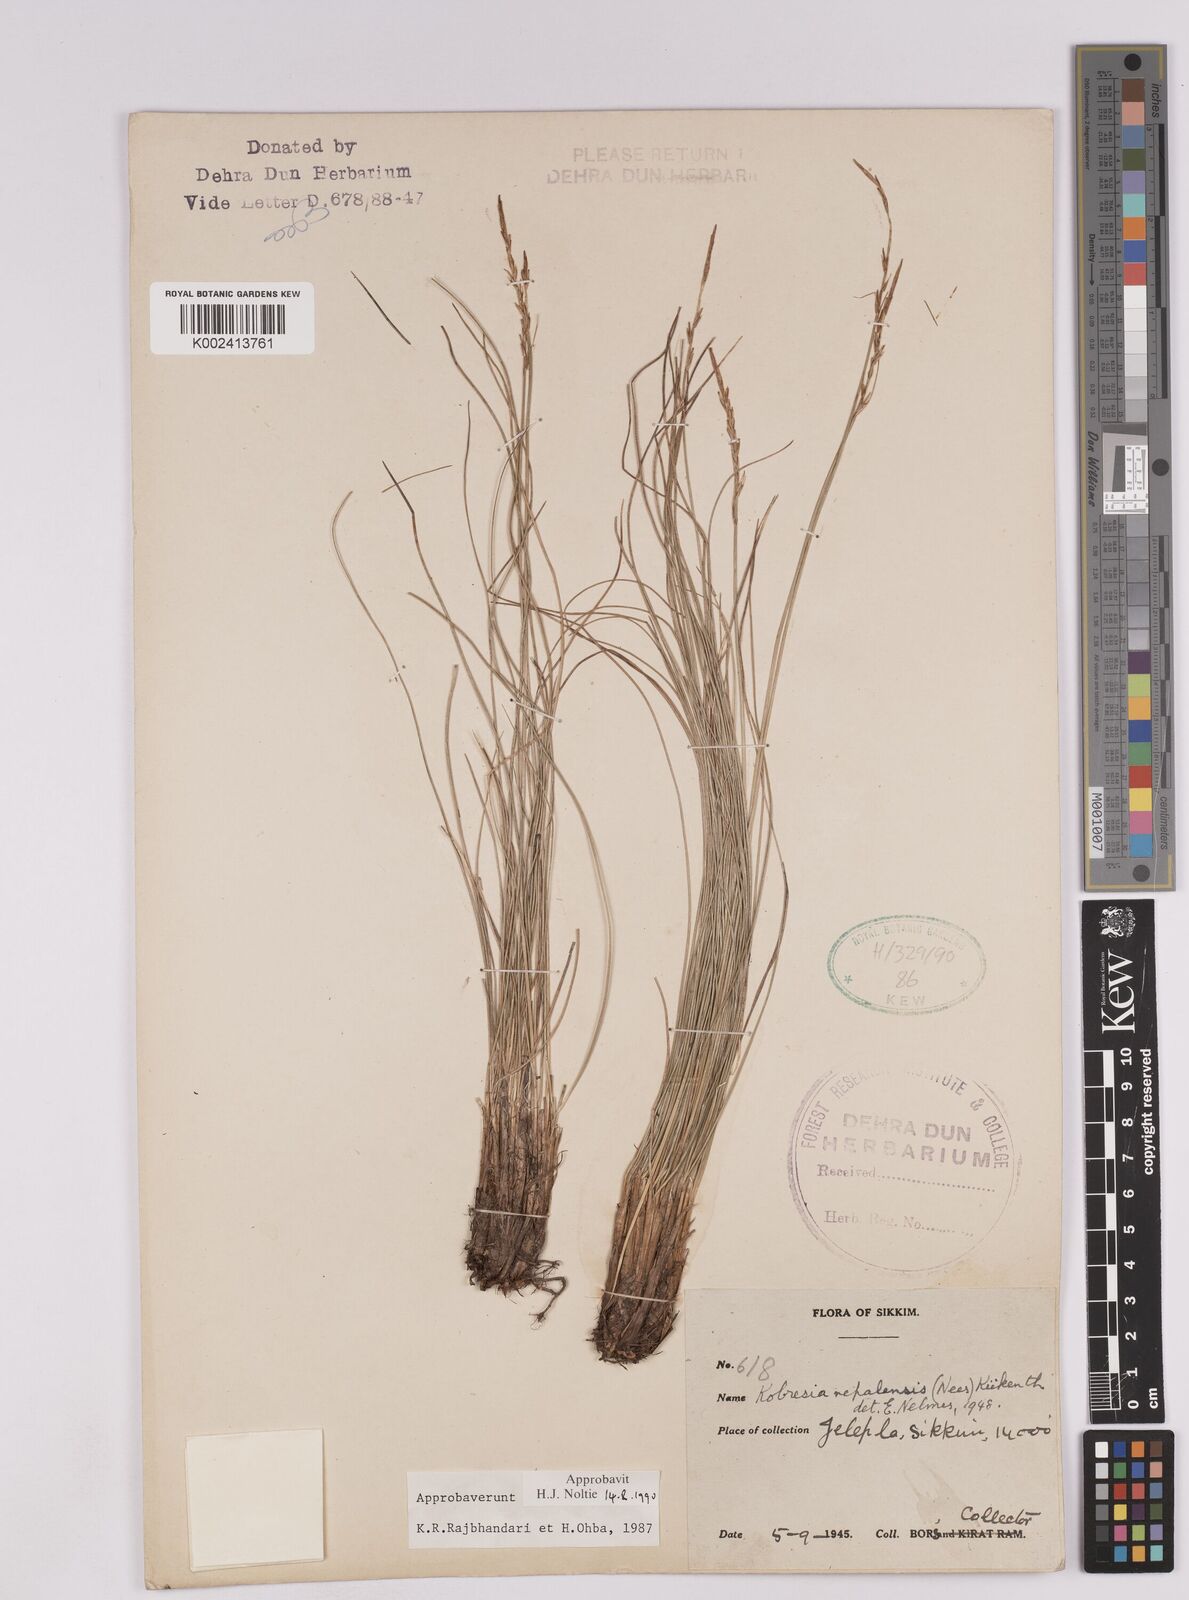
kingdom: Plantae
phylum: Tracheophyta
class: Liliopsida
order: Poales
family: Cyperaceae
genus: Carex
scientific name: Carex unciniiformis
